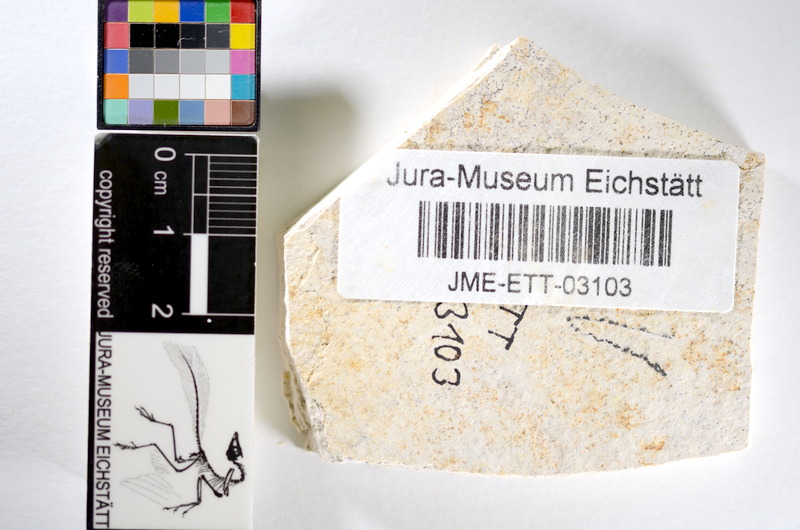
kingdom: Animalia
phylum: Chordata
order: Salmoniformes
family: Orthogonikleithridae
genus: Orthogonikleithrus
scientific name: Orthogonikleithrus hoelli
